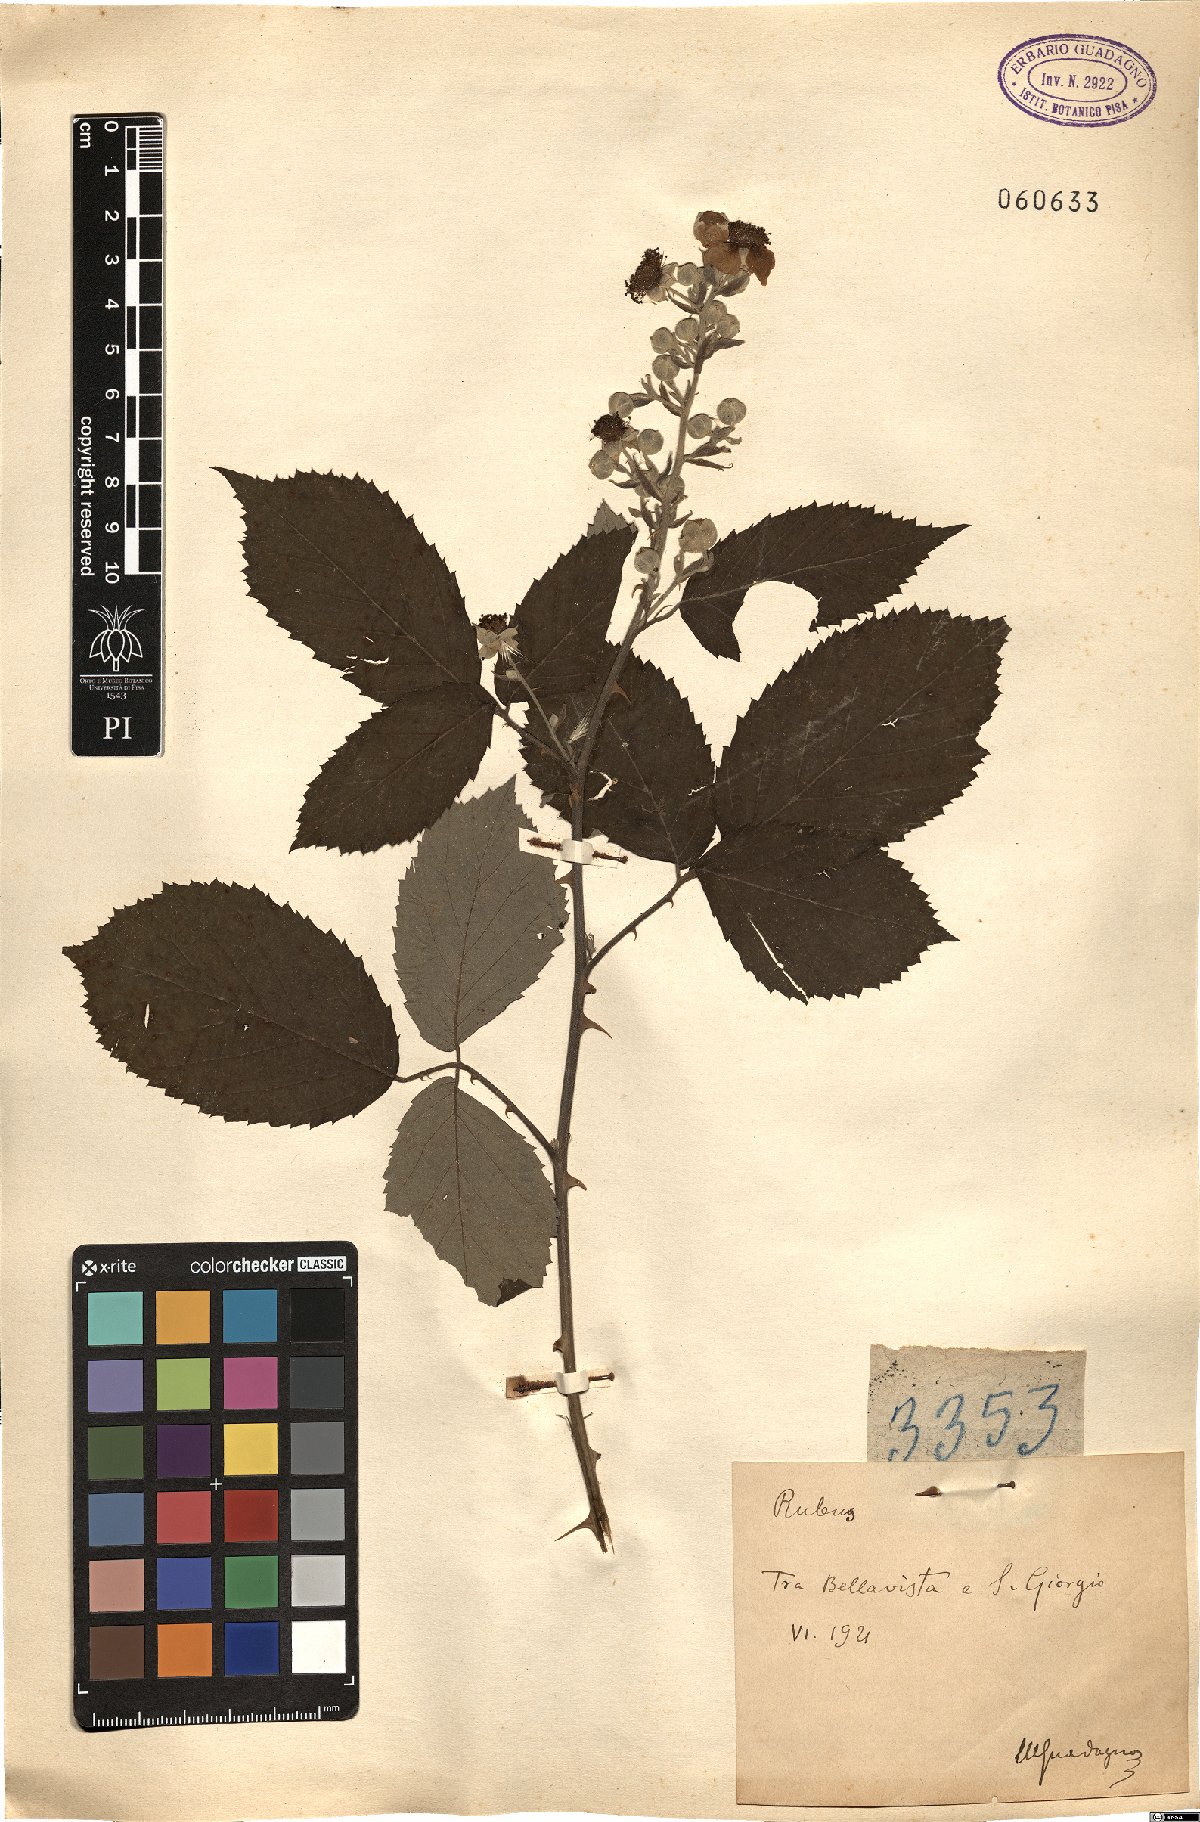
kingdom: Plantae
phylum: Tracheophyta
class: Magnoliopsida
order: Rosales
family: Rosaceae
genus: Rubus
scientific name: Rubus
